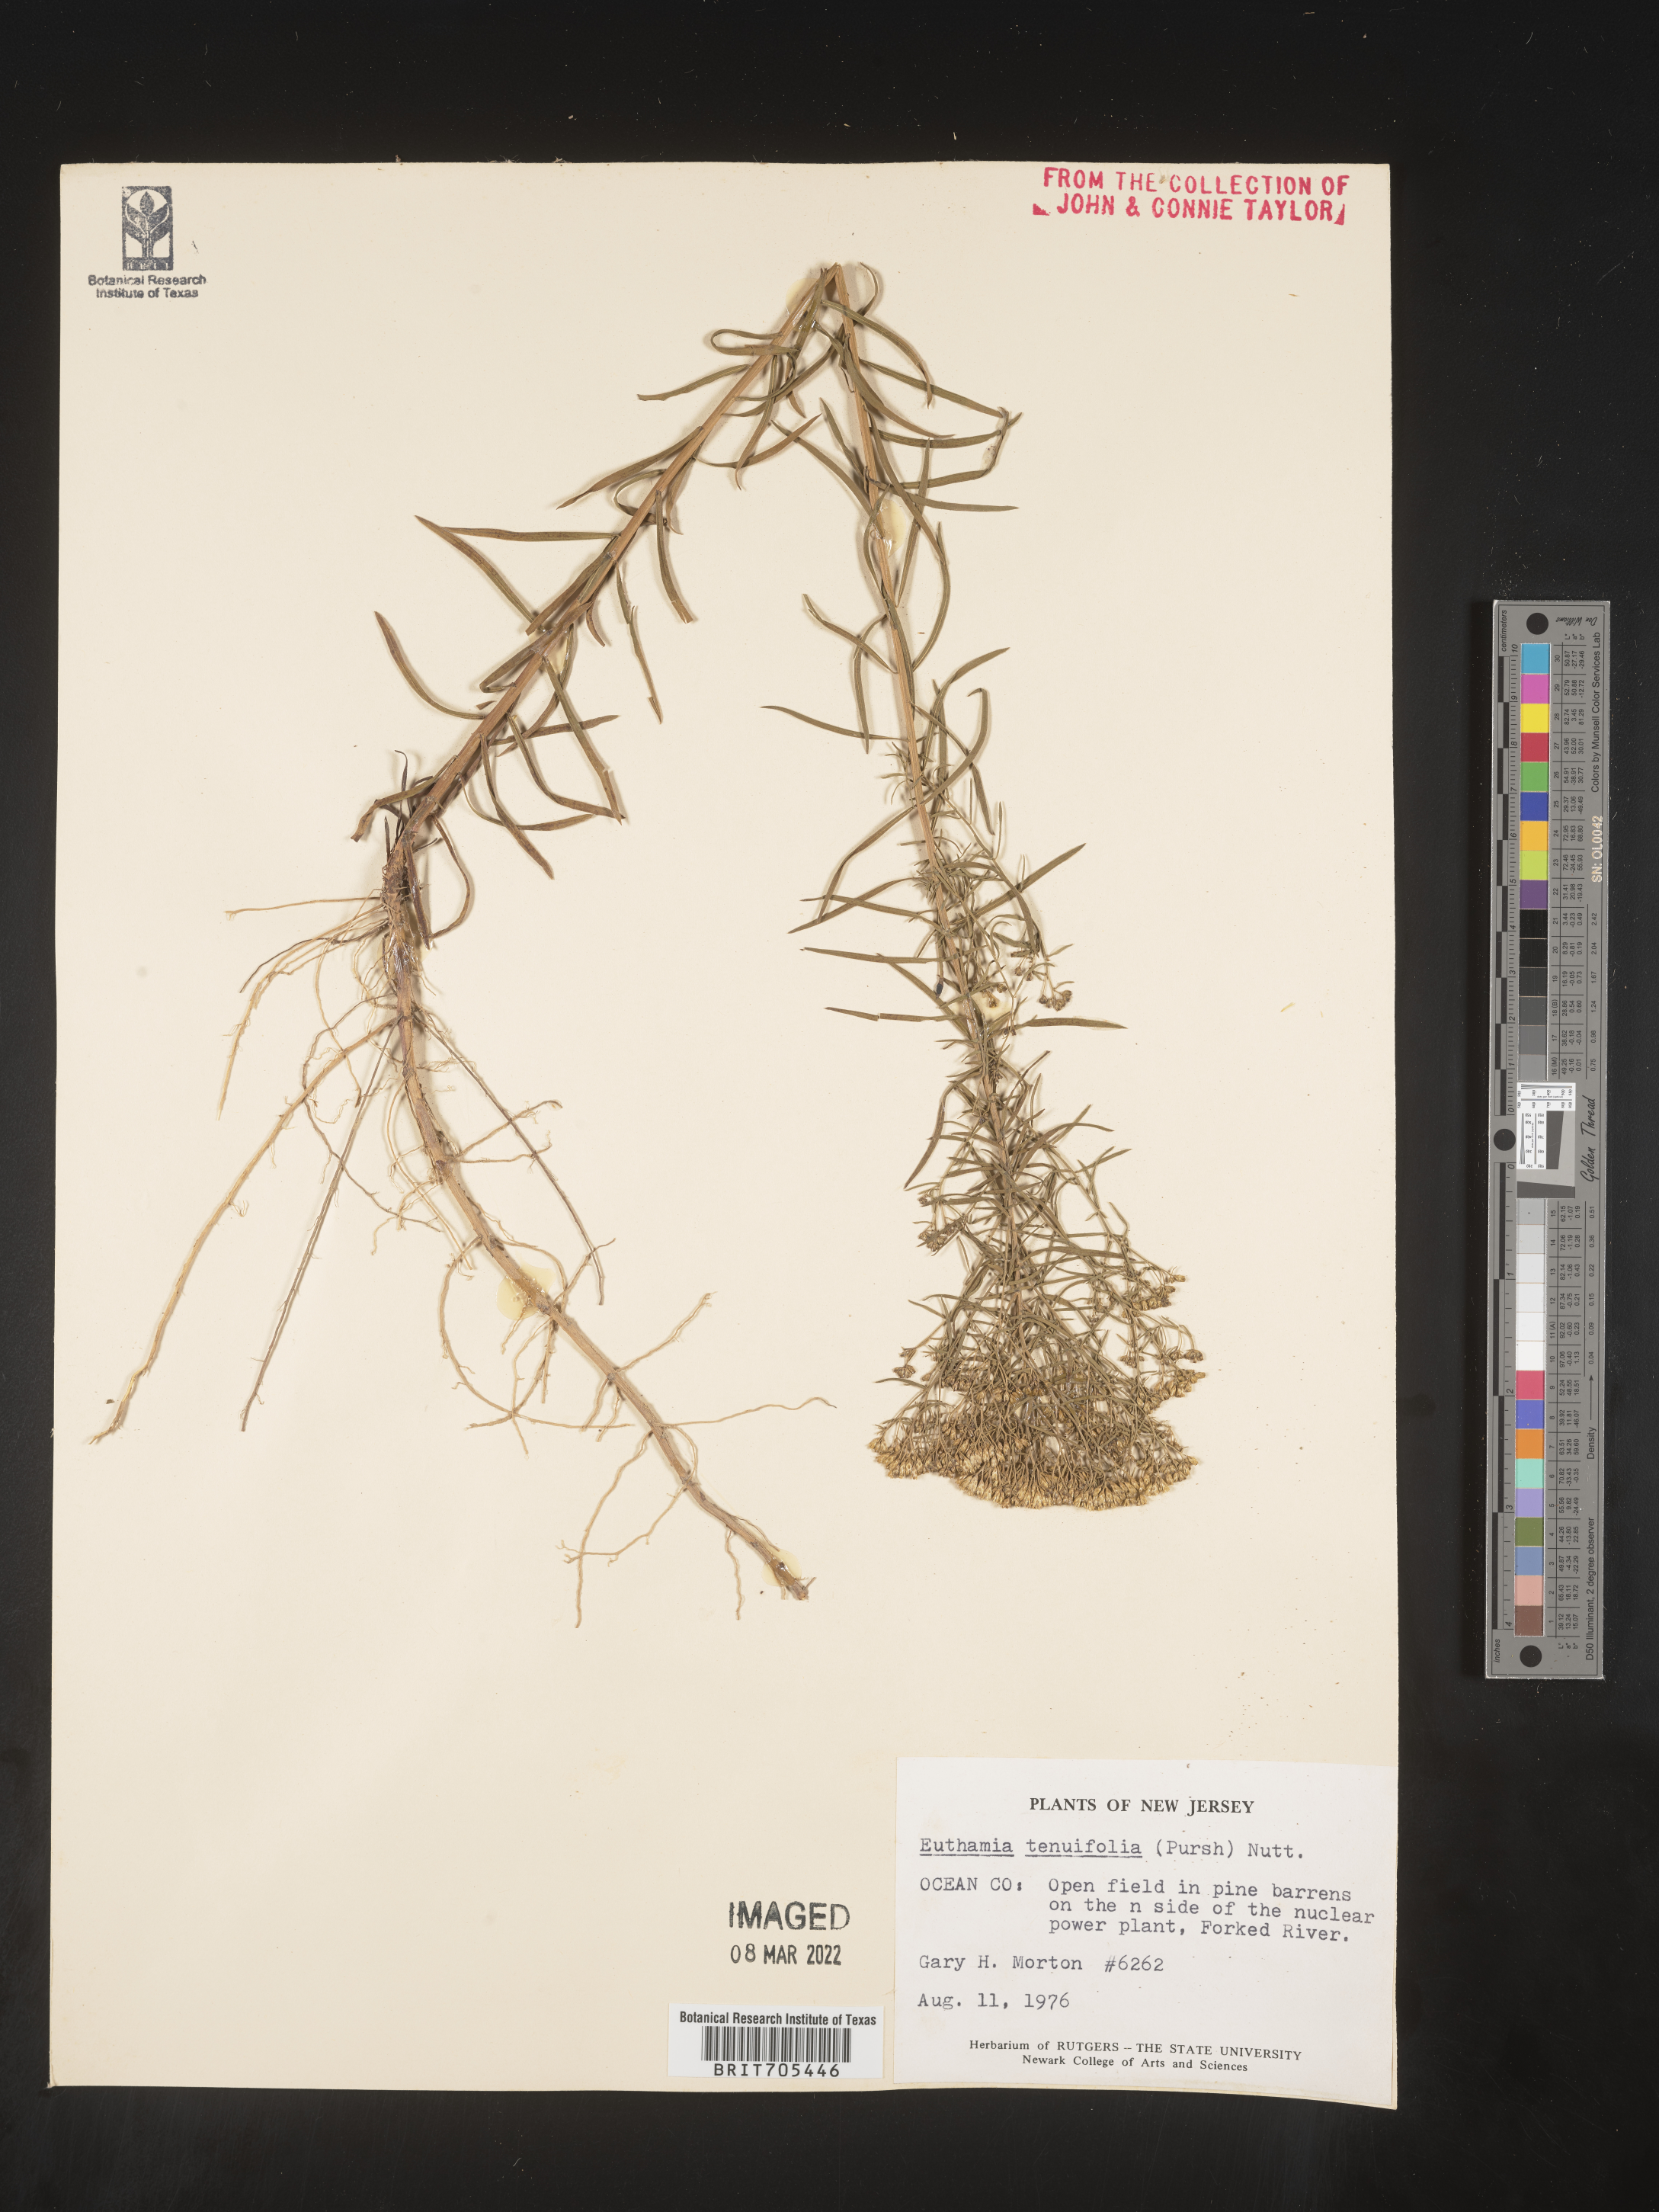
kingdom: Plantae
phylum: Tracheophyta
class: Magnoliopsida
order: Asterales
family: Asteraceae
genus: Euthamia
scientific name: Euthamia scabra
